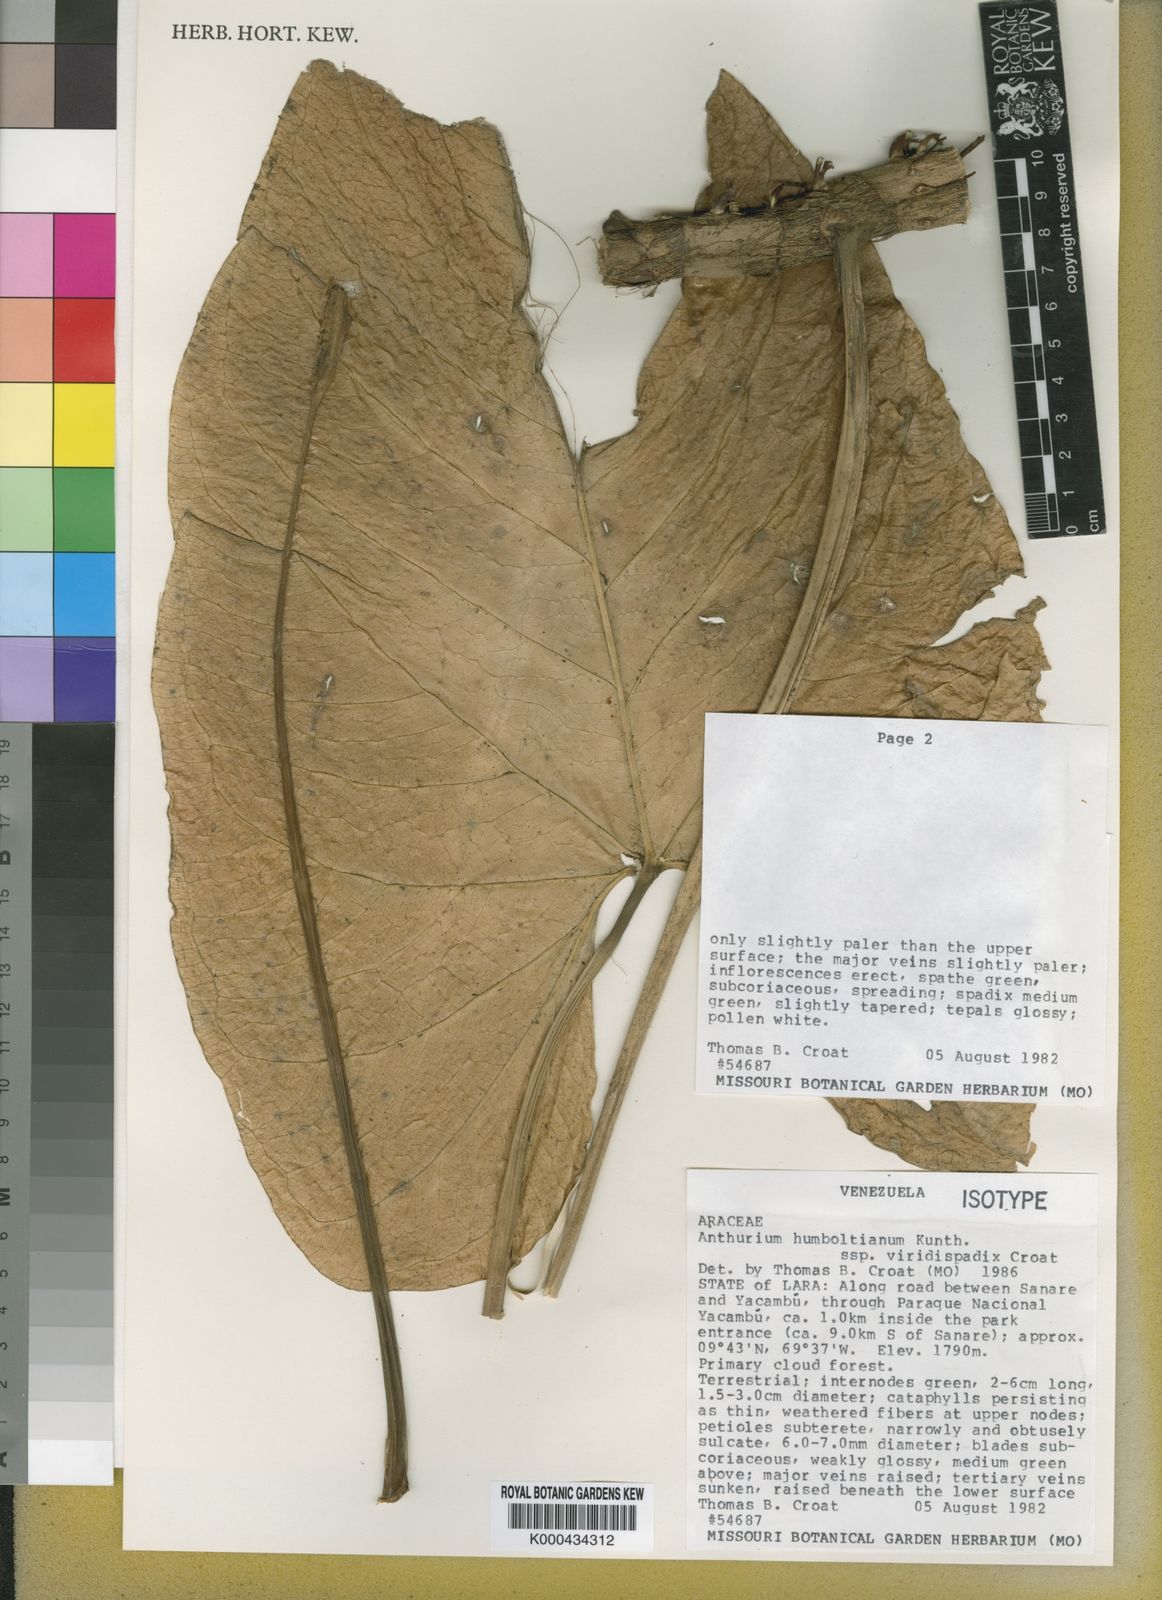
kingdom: Plantae
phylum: Tracheophyta
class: Liliopsida
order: Alismatales
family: Araceae
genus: Anthurium
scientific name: Anthurium
